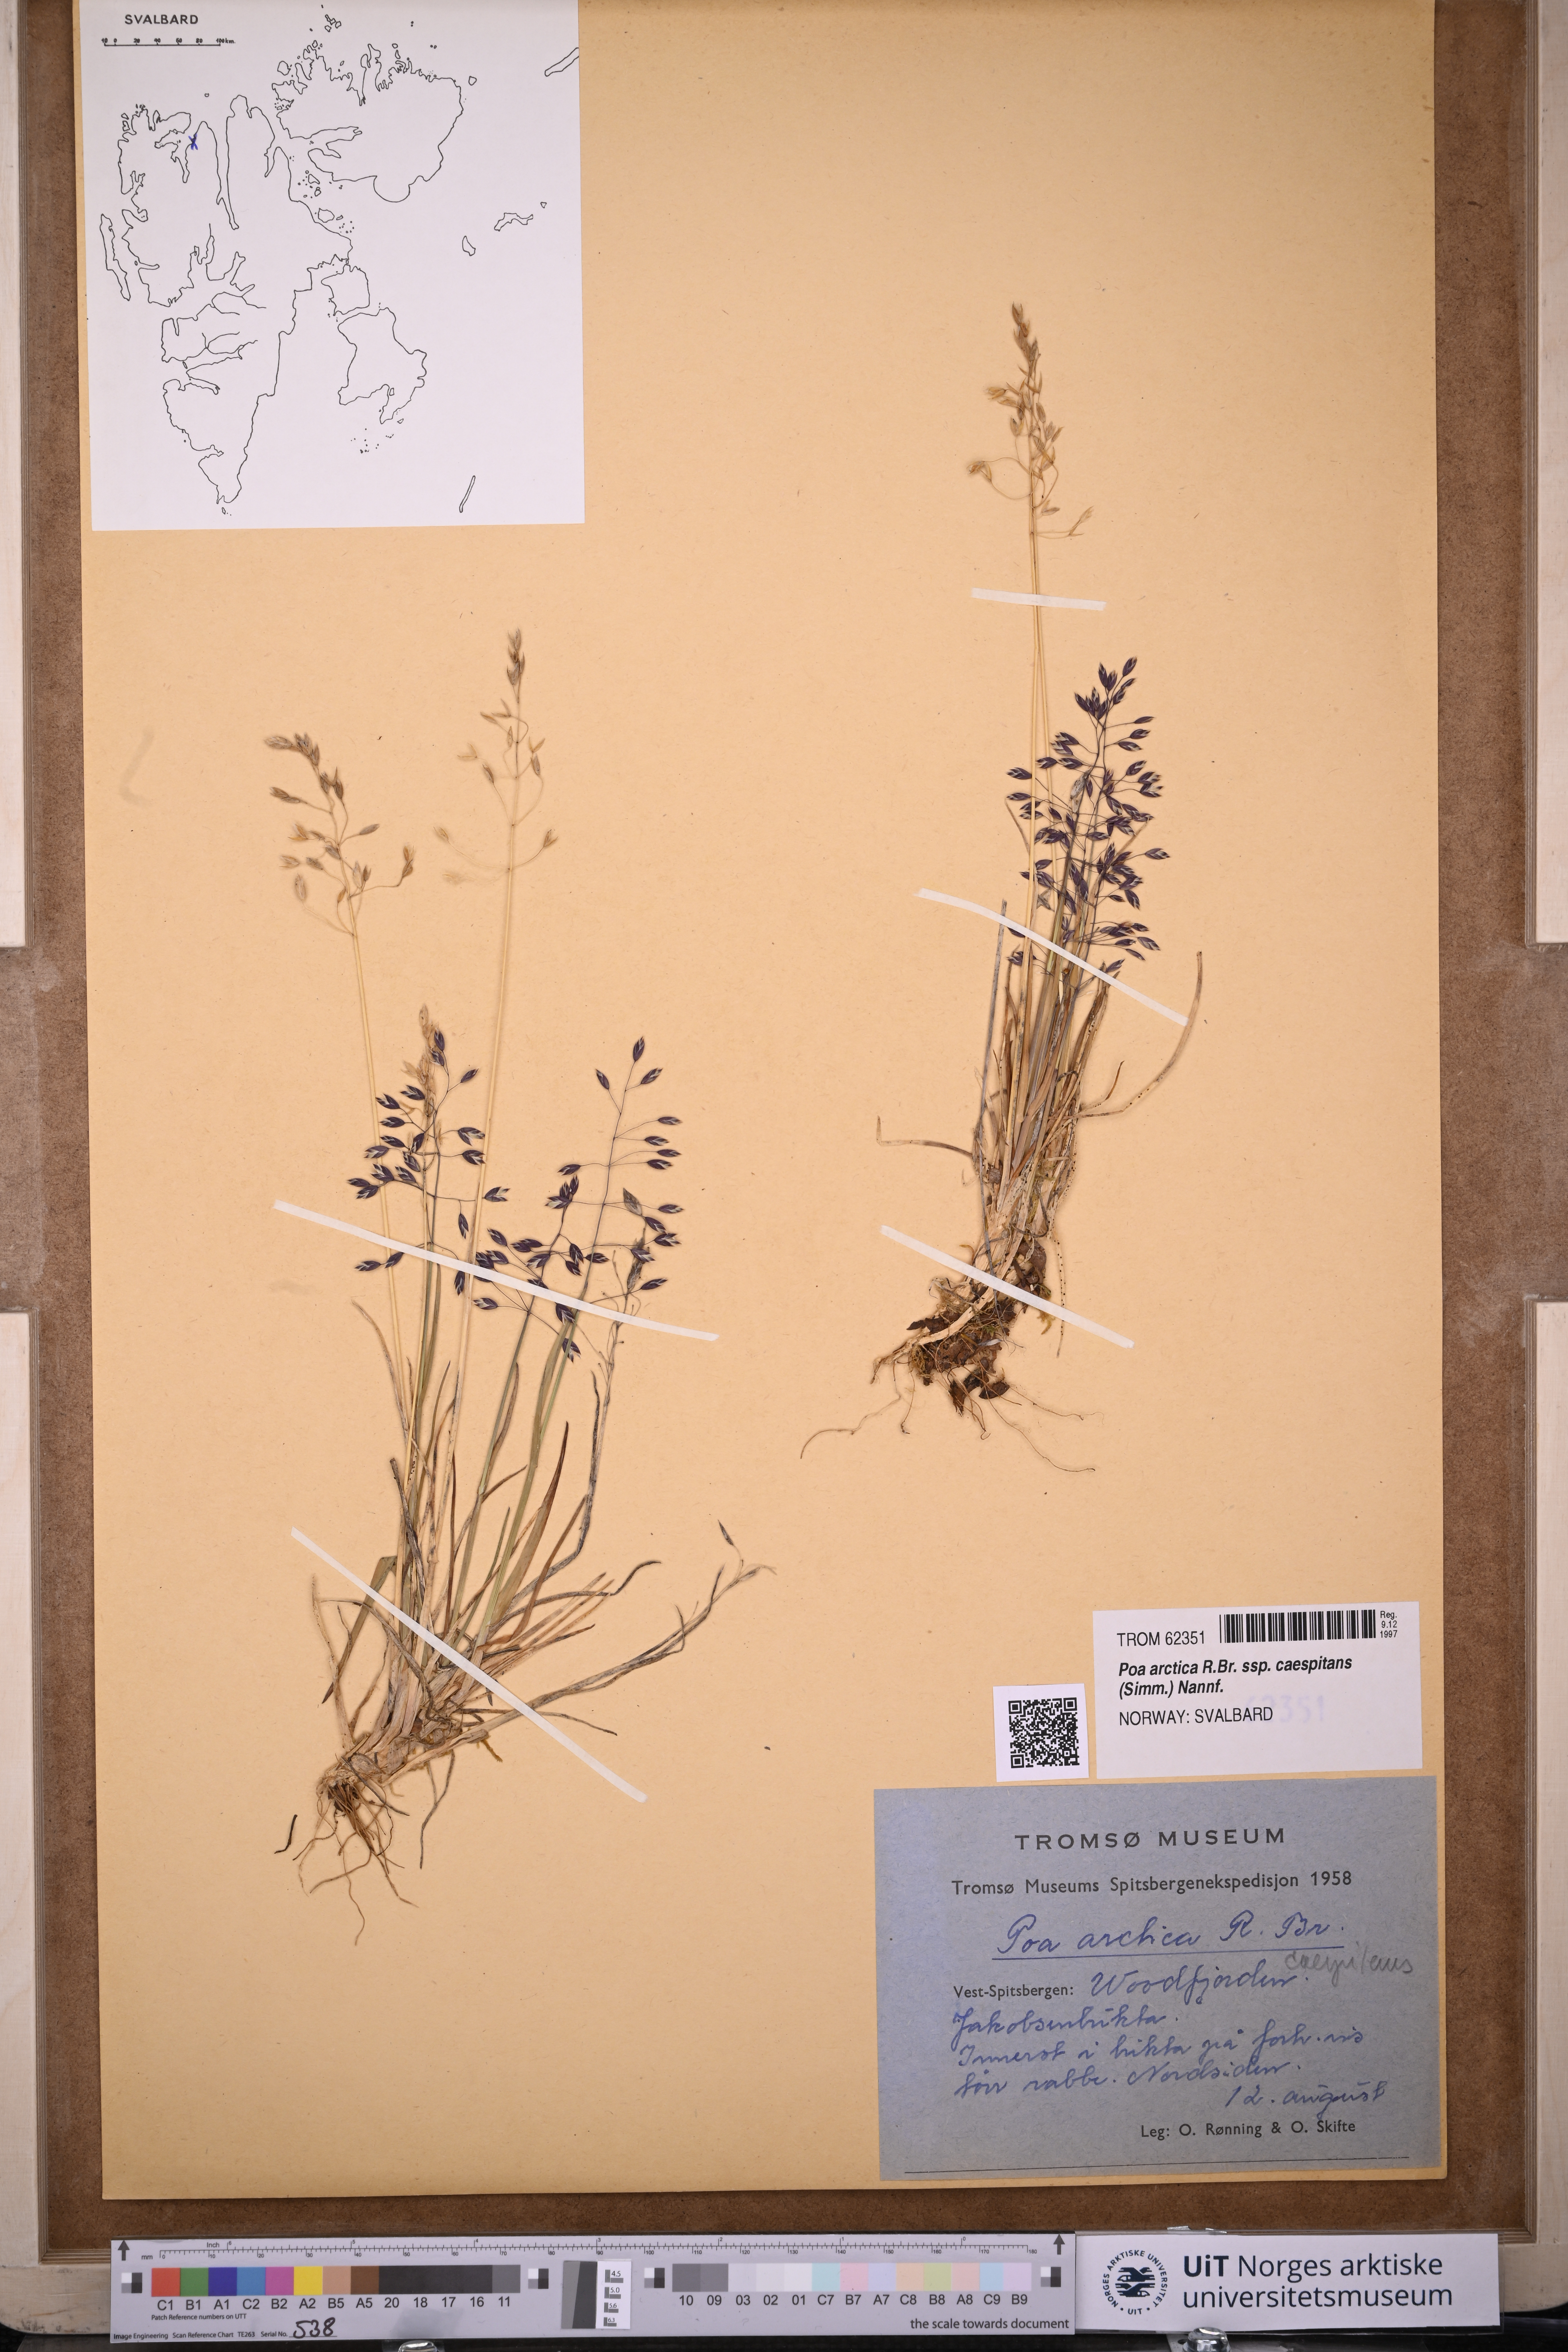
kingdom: Plantae
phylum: Tracheophyta
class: Liliopsida
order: Poales
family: Poaceae
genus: Poa
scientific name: Poa tolmatchewii
